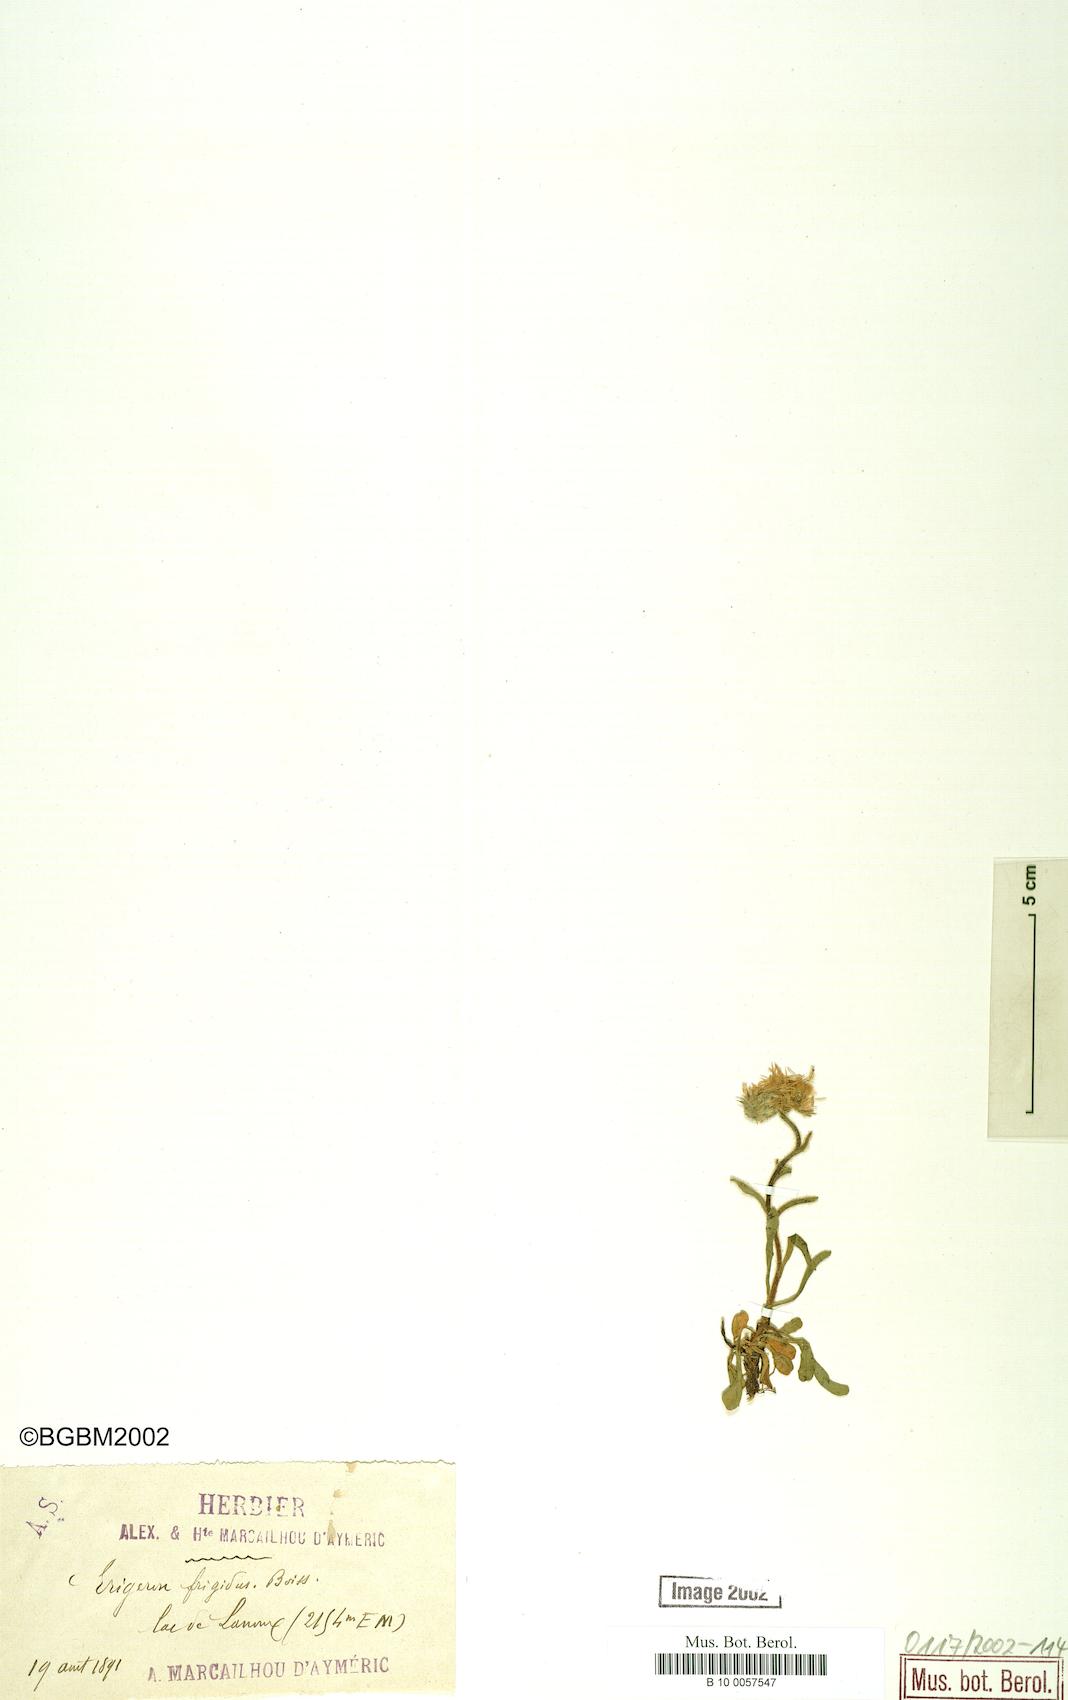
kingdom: Plantae
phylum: Tracheophyta
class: Magnoliopsida
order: Asterales
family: Asteraceae
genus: Erigeron
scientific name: Erigeron aragonensis
